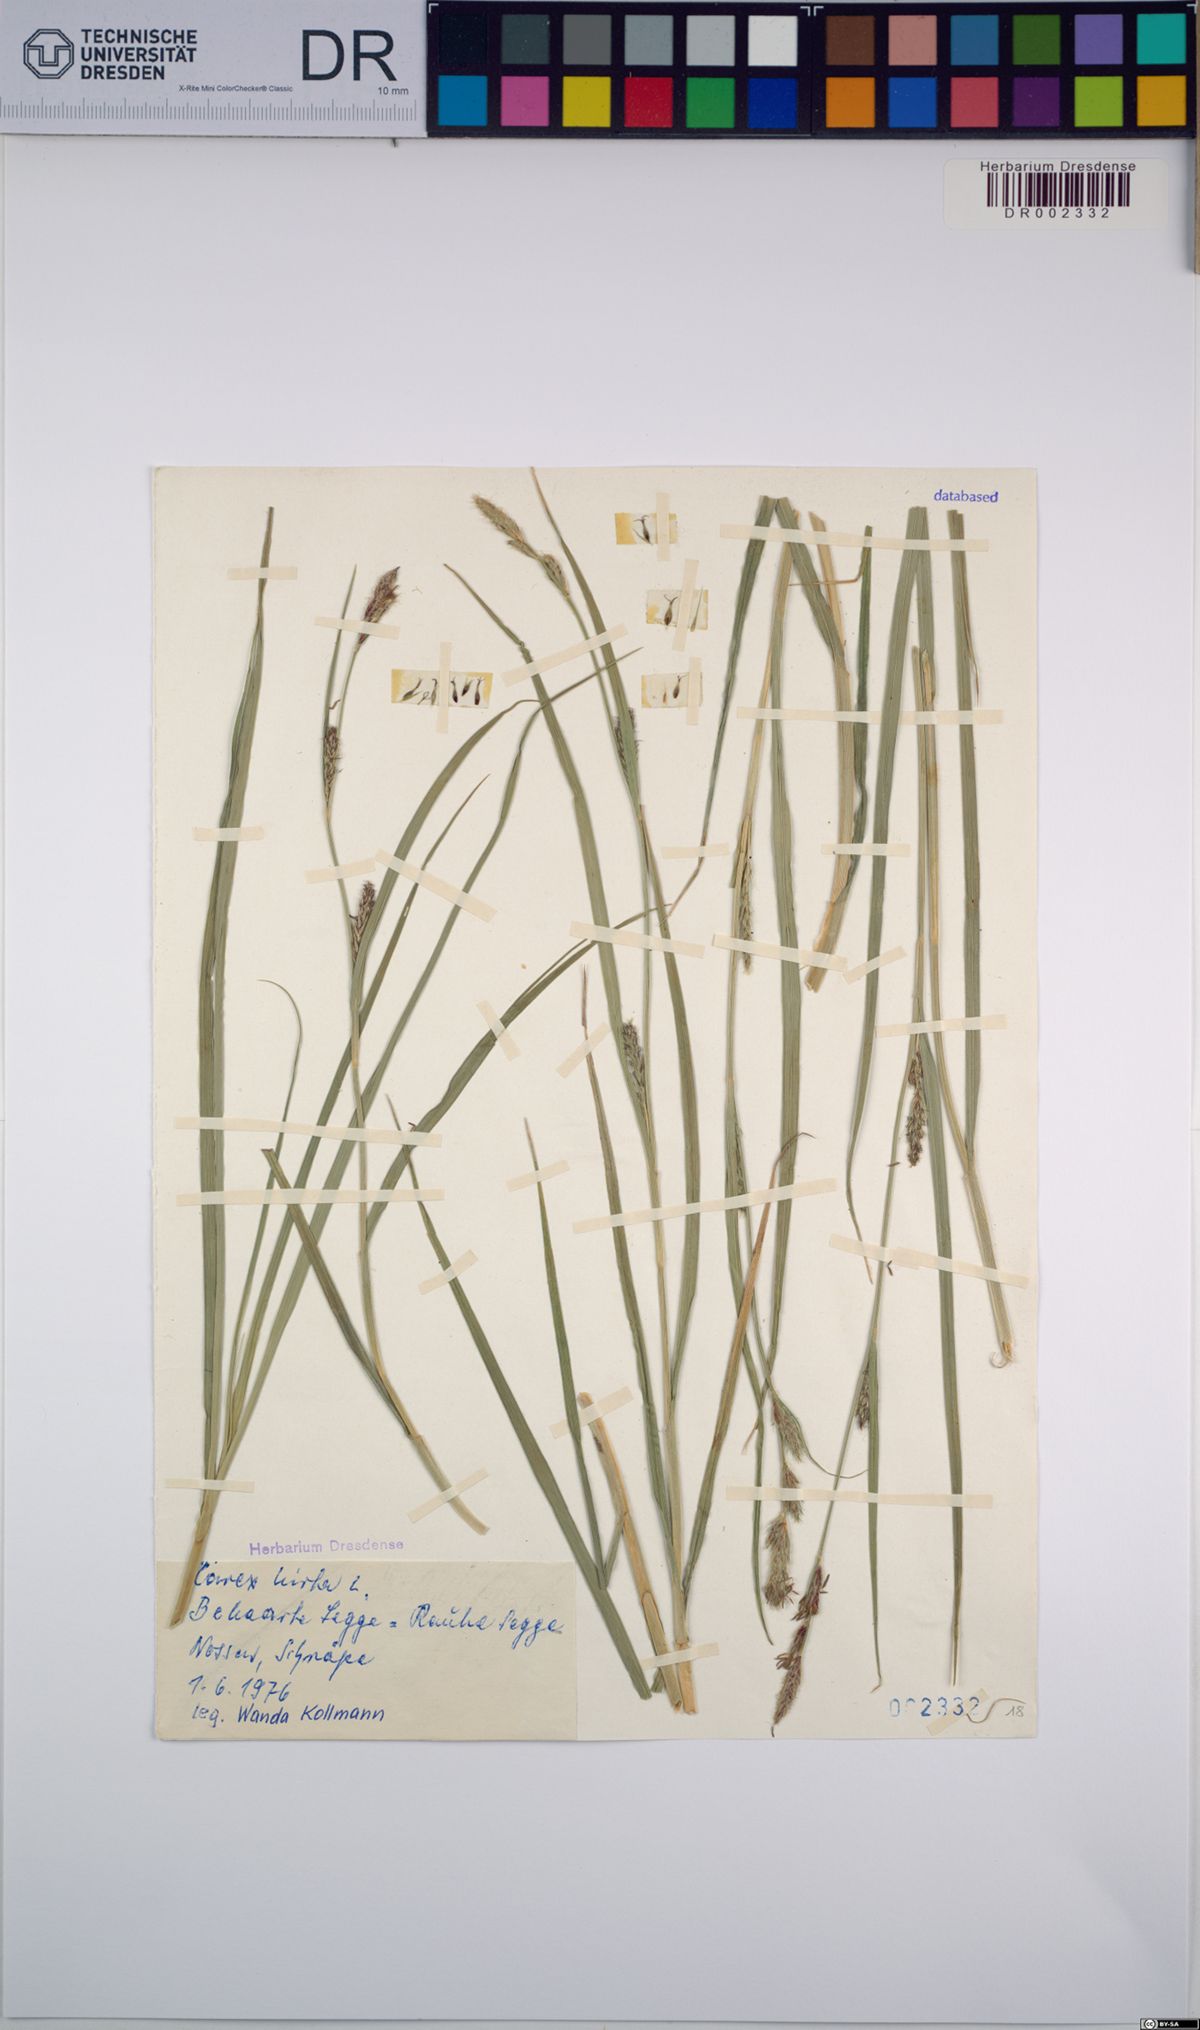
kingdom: Plantae
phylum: Tracheophyta
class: Liliopsida
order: Poales
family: Cyperaceae
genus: Carex
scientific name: Carex hirta
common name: Hairy sedge
